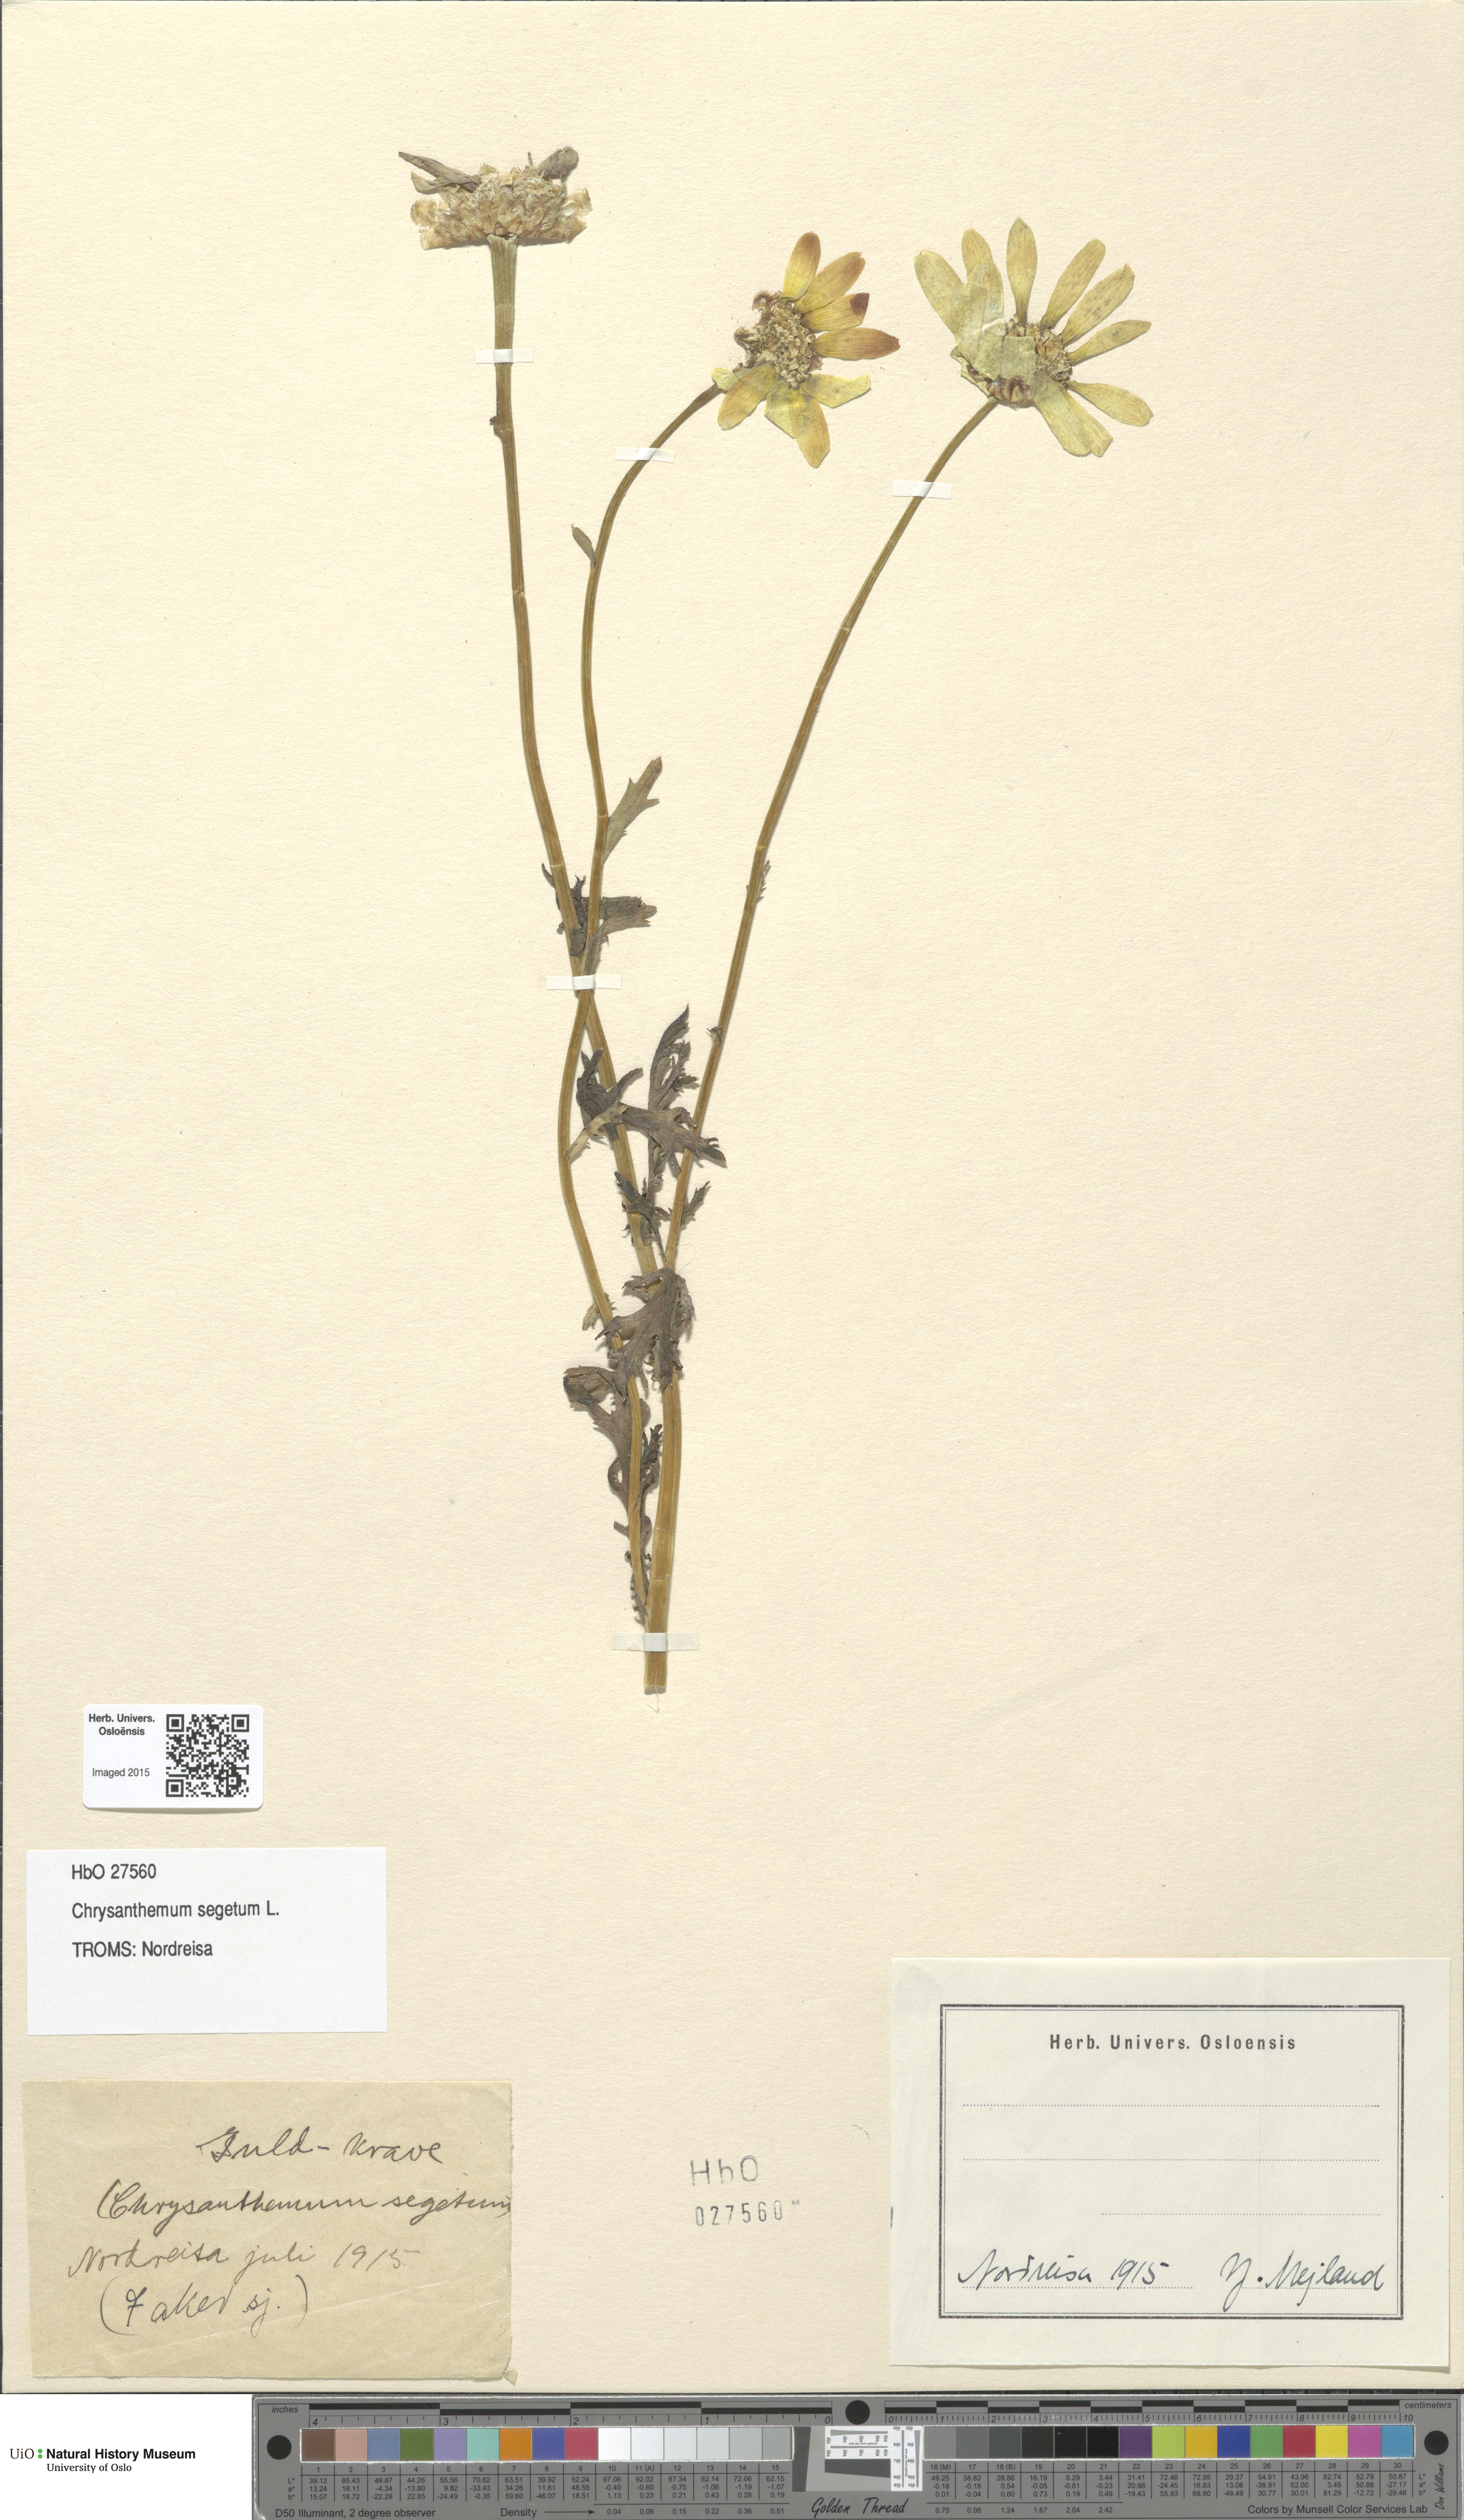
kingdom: Plantae
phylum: Tracheophyta
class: Magnoliopsida
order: Asterales
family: Asteraceae
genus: Glebionis
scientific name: Glebionis segetum
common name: Corndaisy
